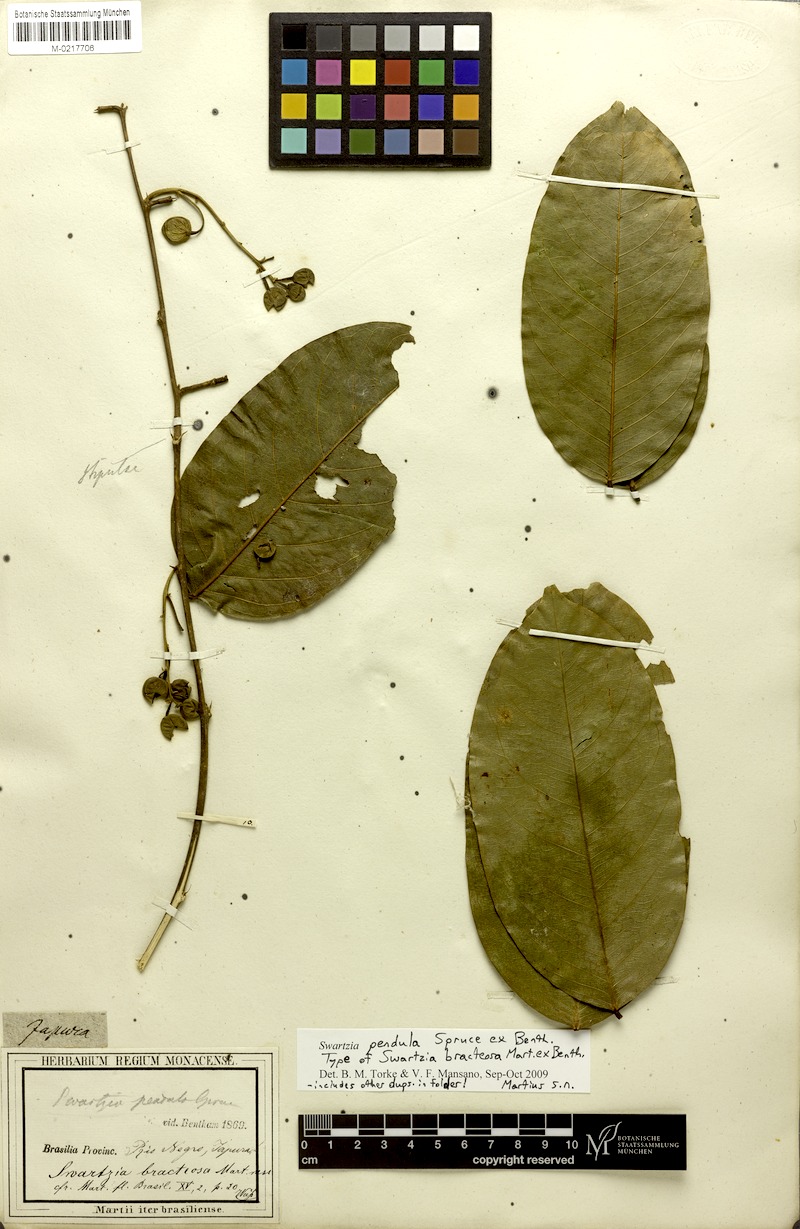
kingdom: Plantae
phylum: Tracheophyta
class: Magnoliopsida
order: Fabales
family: Fabaceae
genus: Swartzia
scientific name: Swartzia pendula
